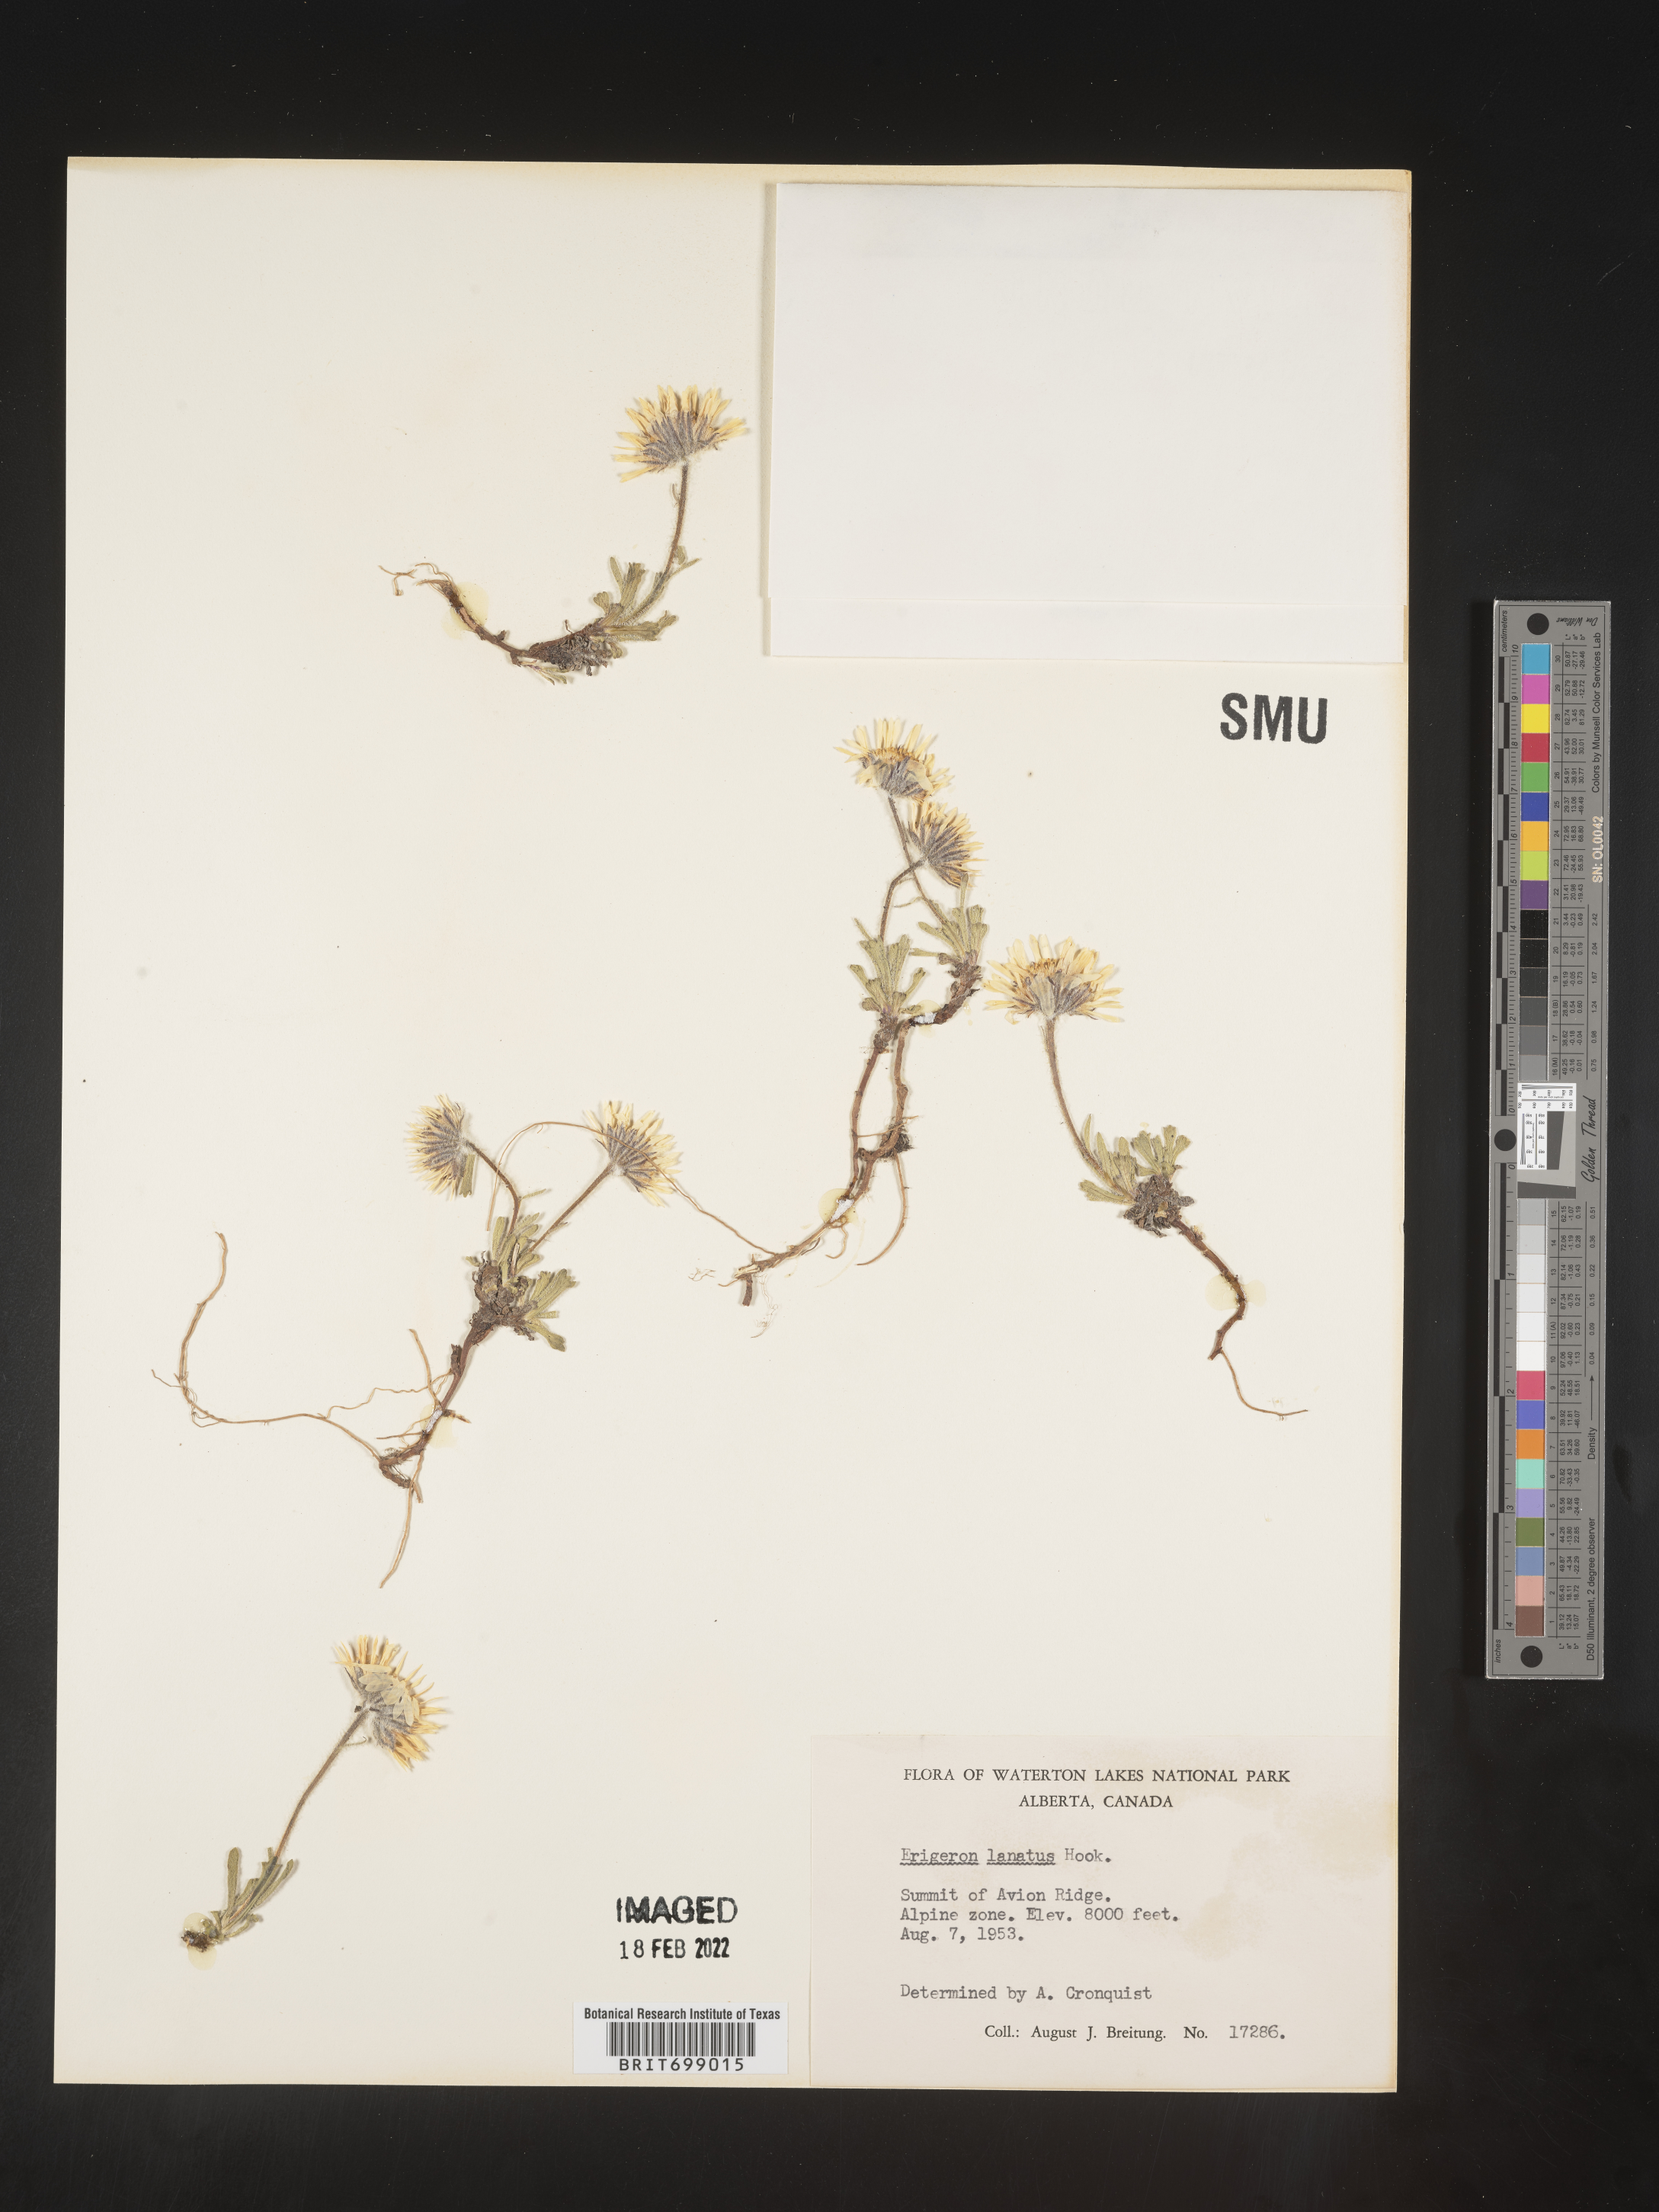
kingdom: Plantae
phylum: Tracheophyta
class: Magnoliopsida
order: Asterales
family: Asteraceae
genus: Erigeron
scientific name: Erigeron lanatus
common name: Hairy daisy
